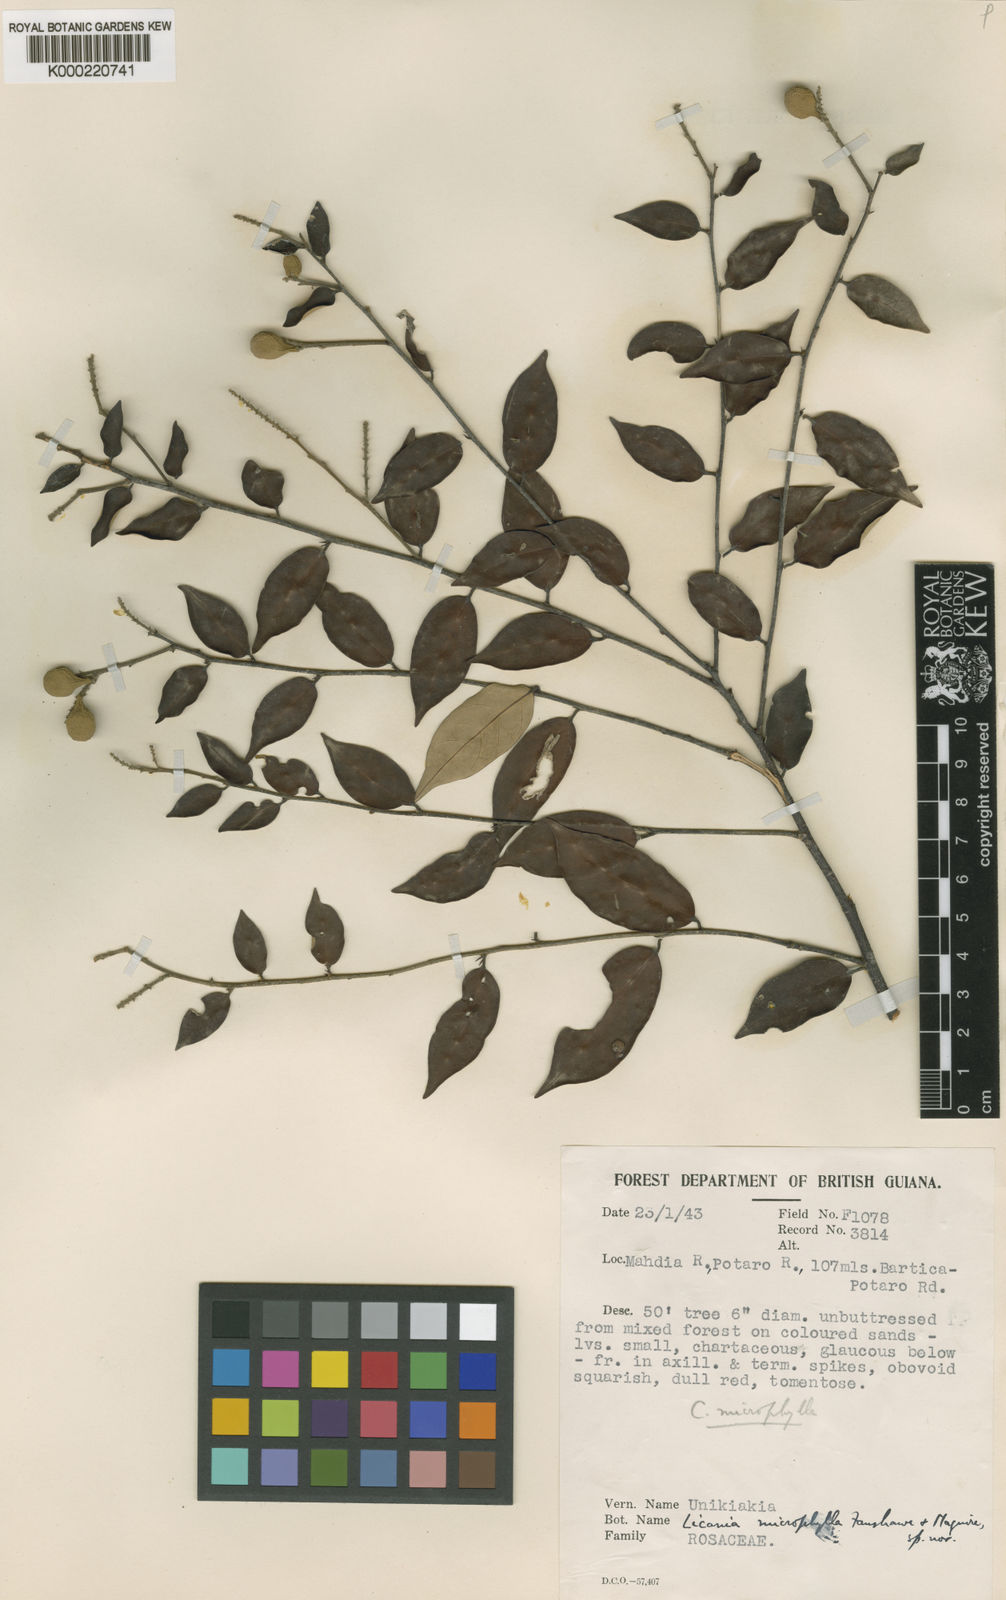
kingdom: Plantae
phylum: Tracheophyta
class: Magnoliopsida
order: Malpighiales
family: Chrysobalanaceae
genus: Licania
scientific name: Licania microphylla
